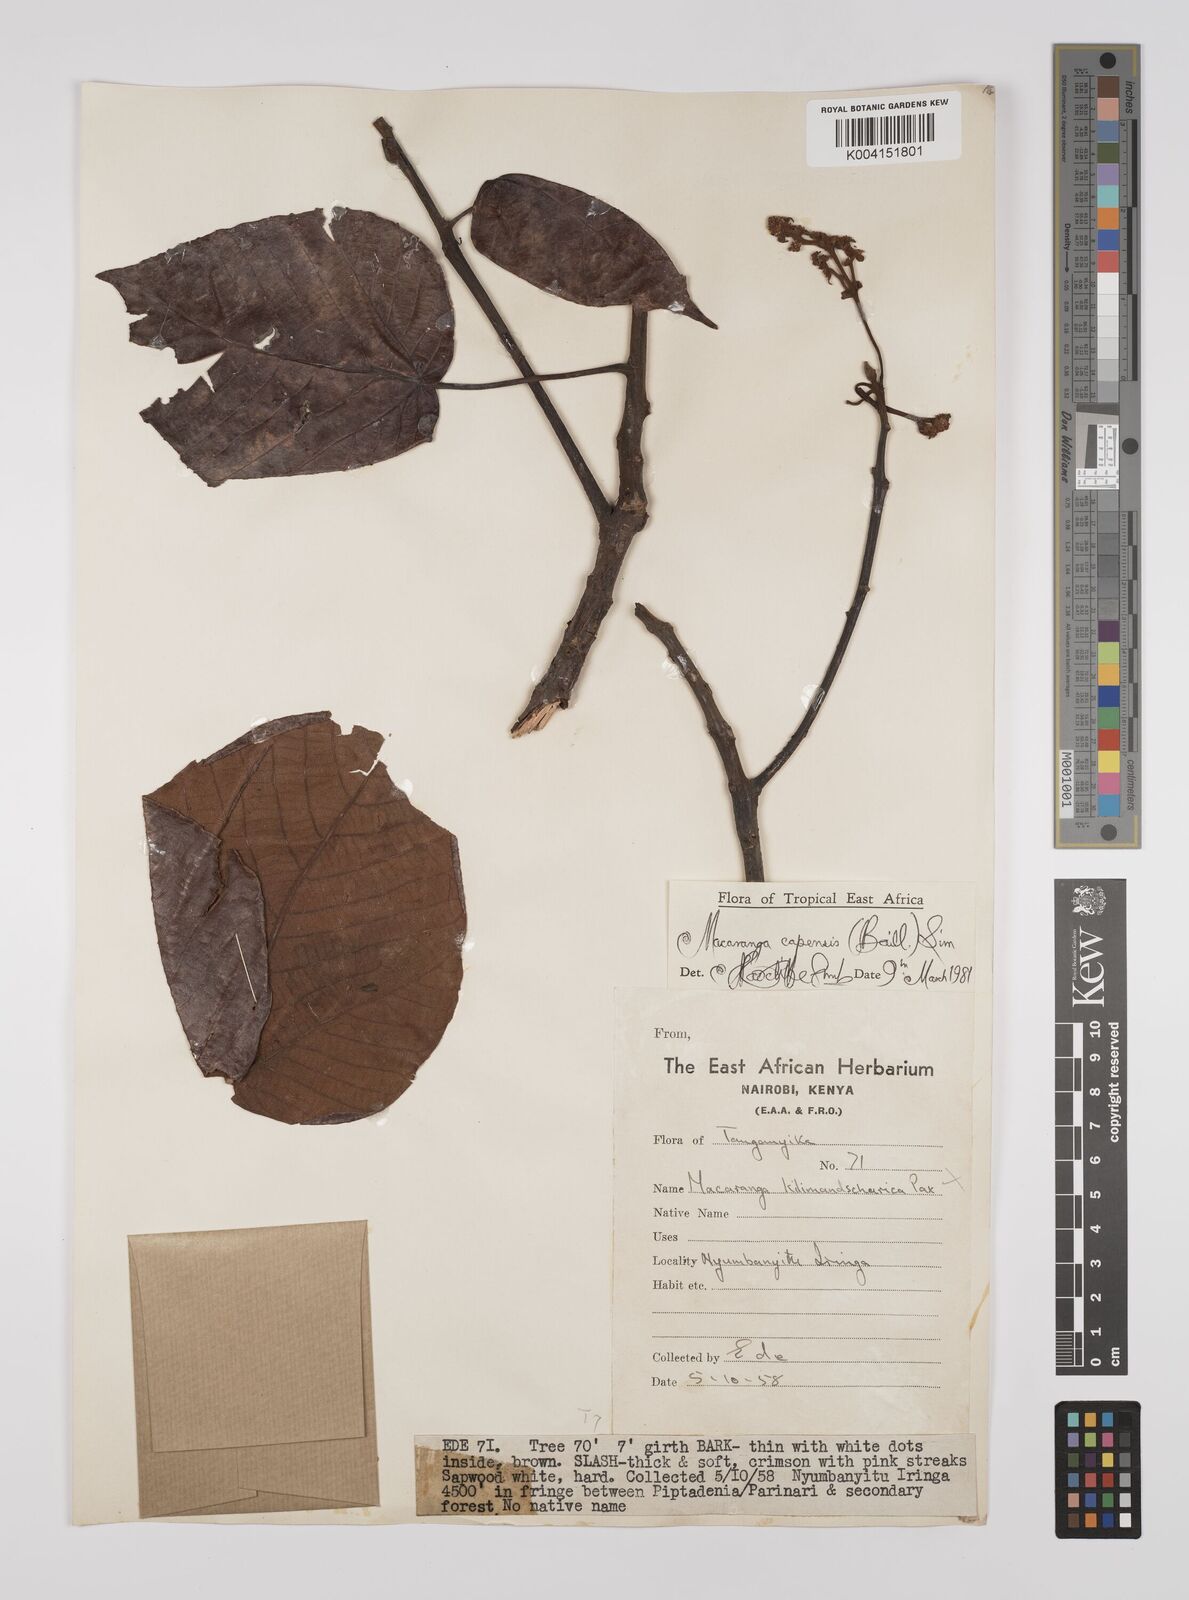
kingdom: Plantae
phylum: Tracheophyta
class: Magnoliopsida
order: Malpighiales
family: Euphorbiaceae
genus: Macaranga
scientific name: Macaranga capensis
